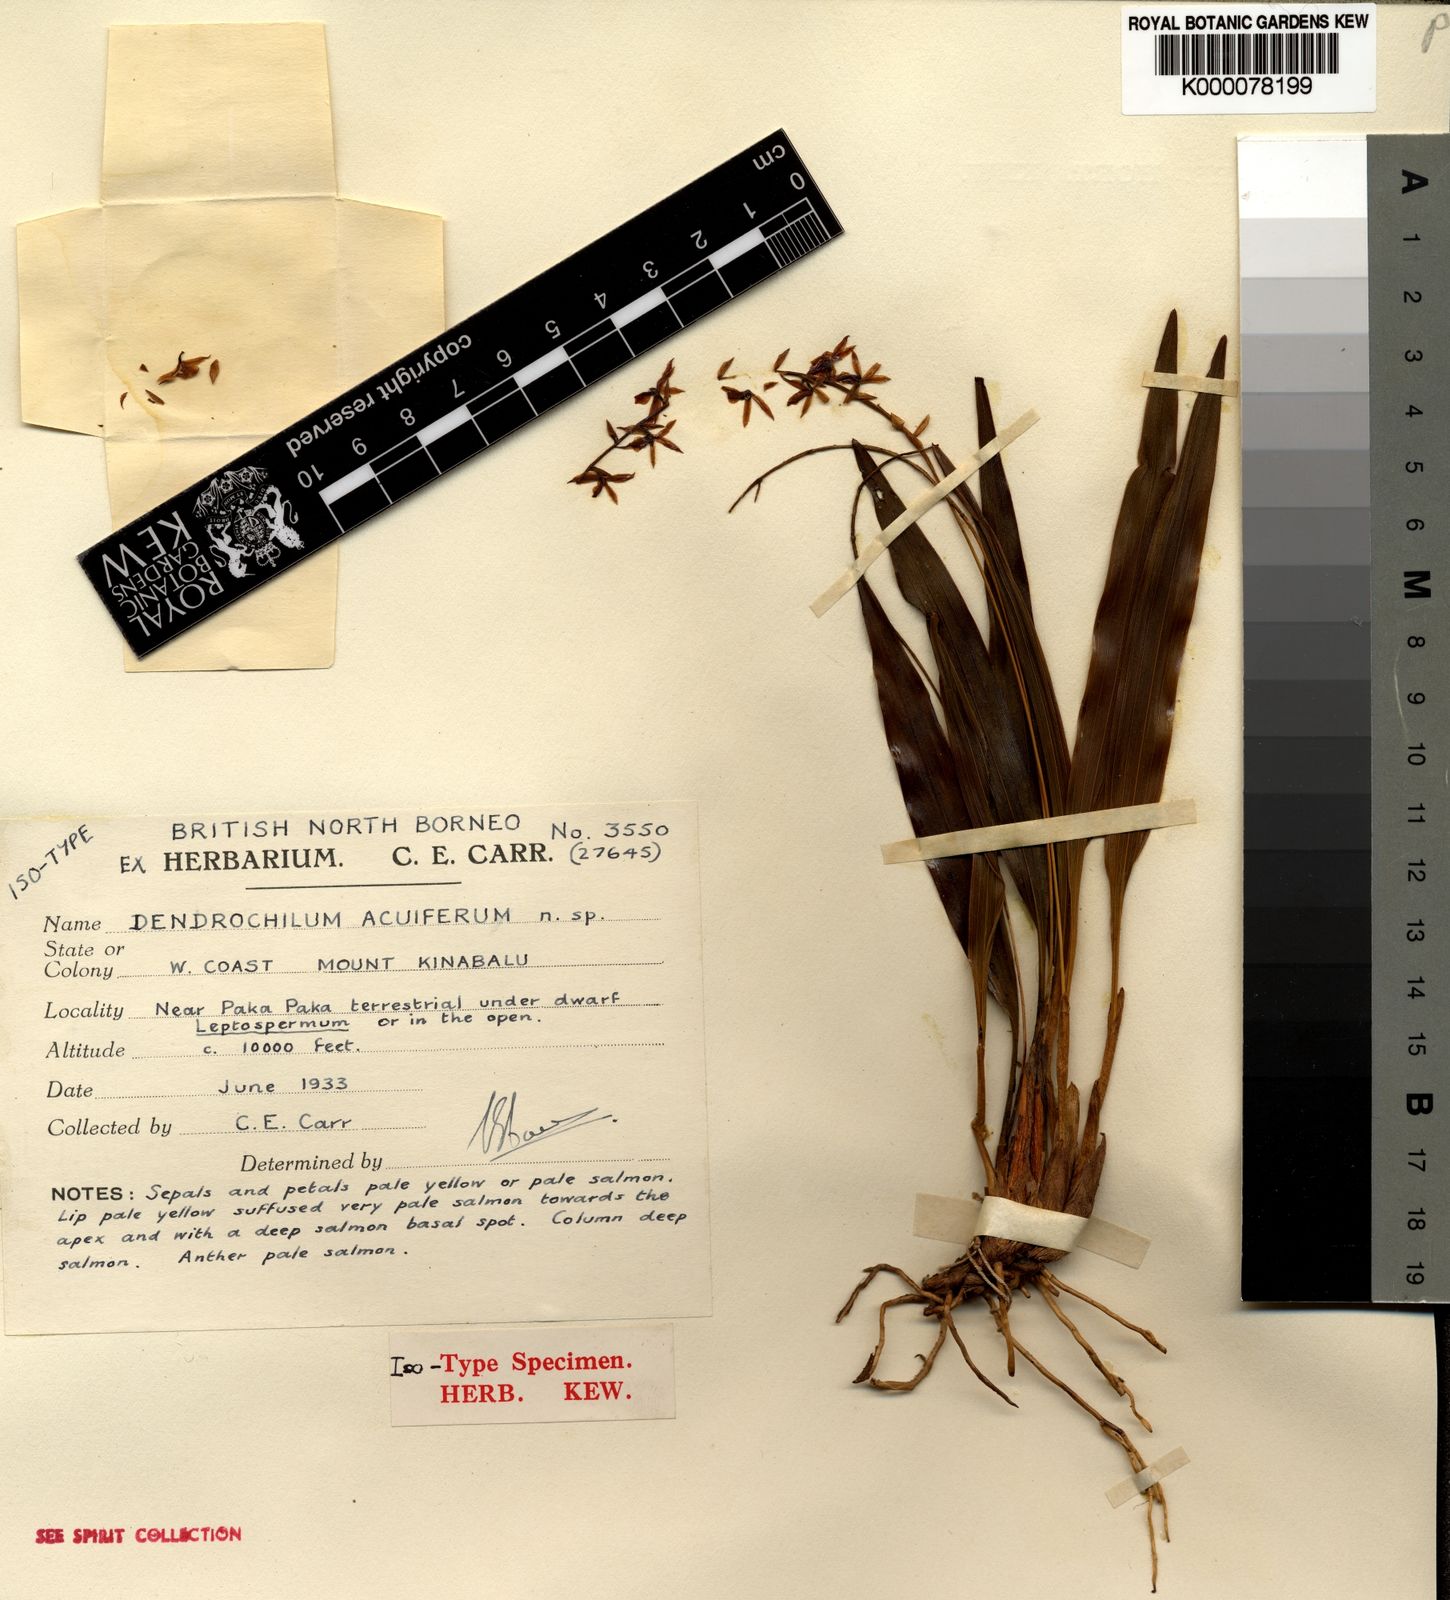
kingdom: Plantae
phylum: Tracheophyta
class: Liliopsida
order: Asparagales
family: Orchidaceae
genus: Coelogyne
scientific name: Coelogyne acuifera
